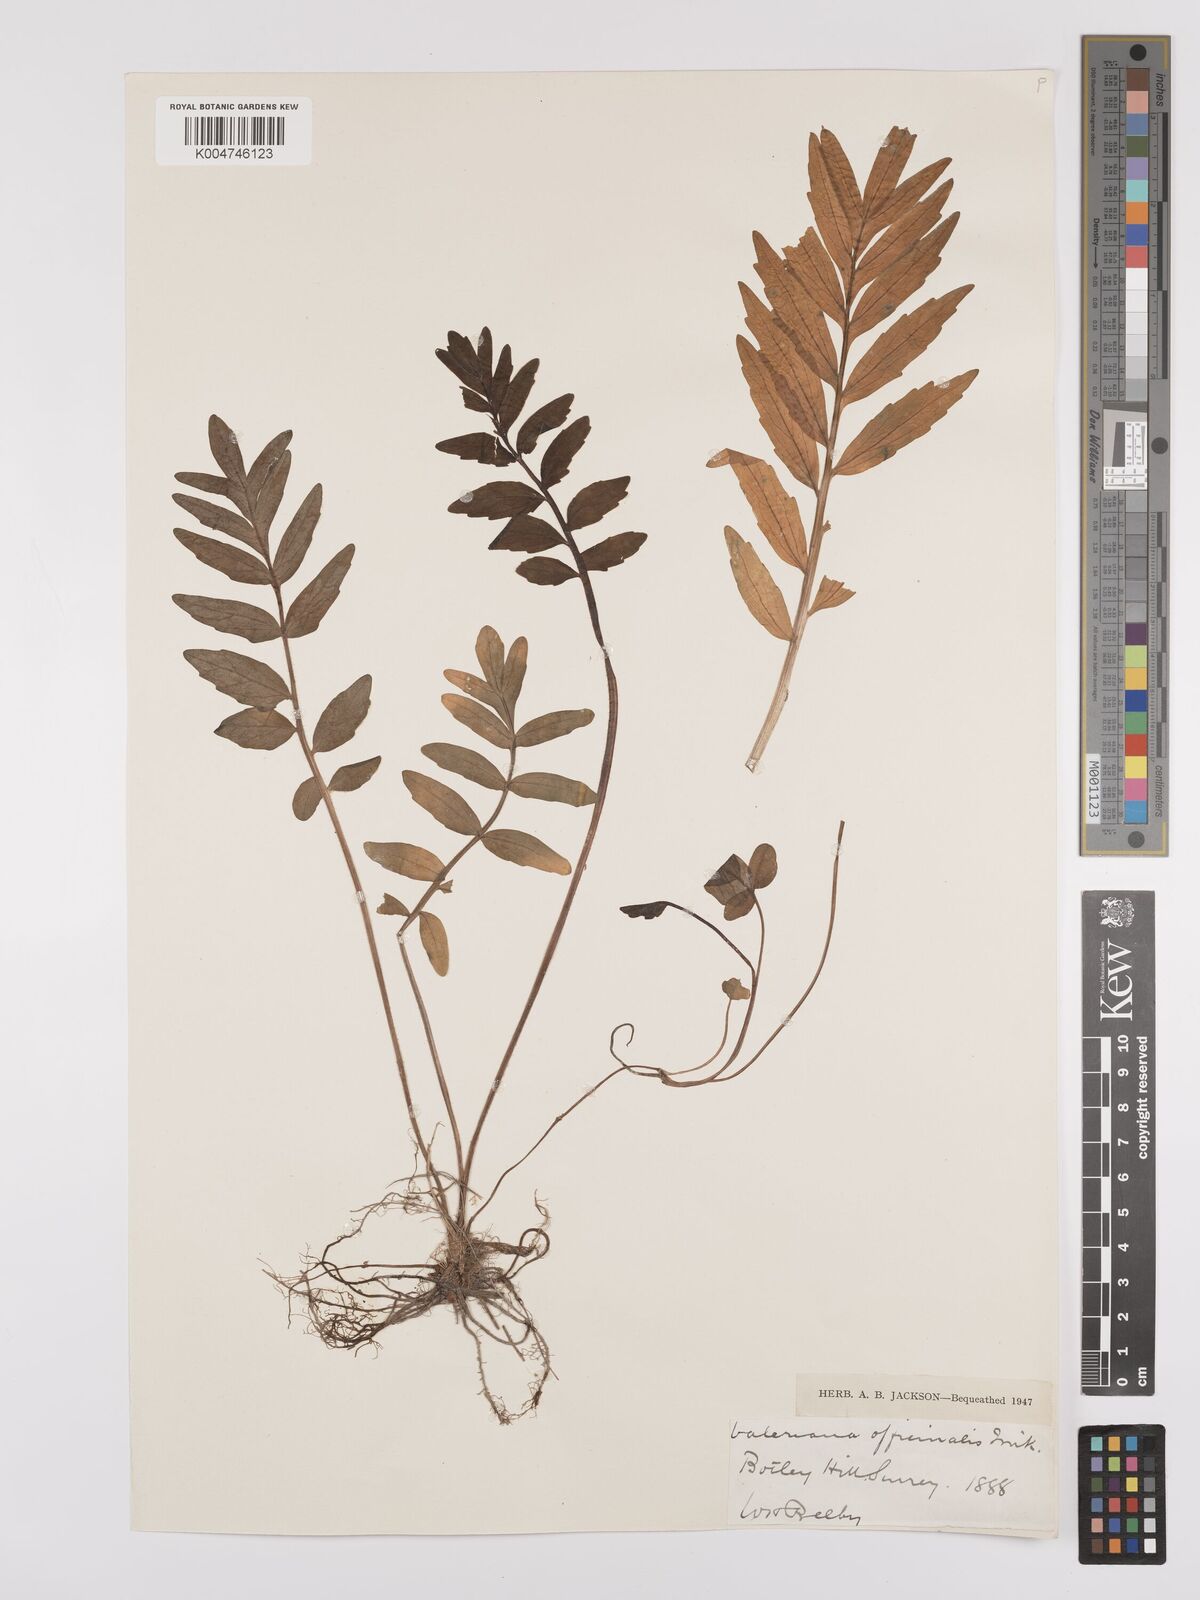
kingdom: Plantae
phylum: Tracheophyta
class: Magnoliopsida
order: Dipsacales
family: Caprifoliaceae
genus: Valeriana
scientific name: Valeriana excelsa
